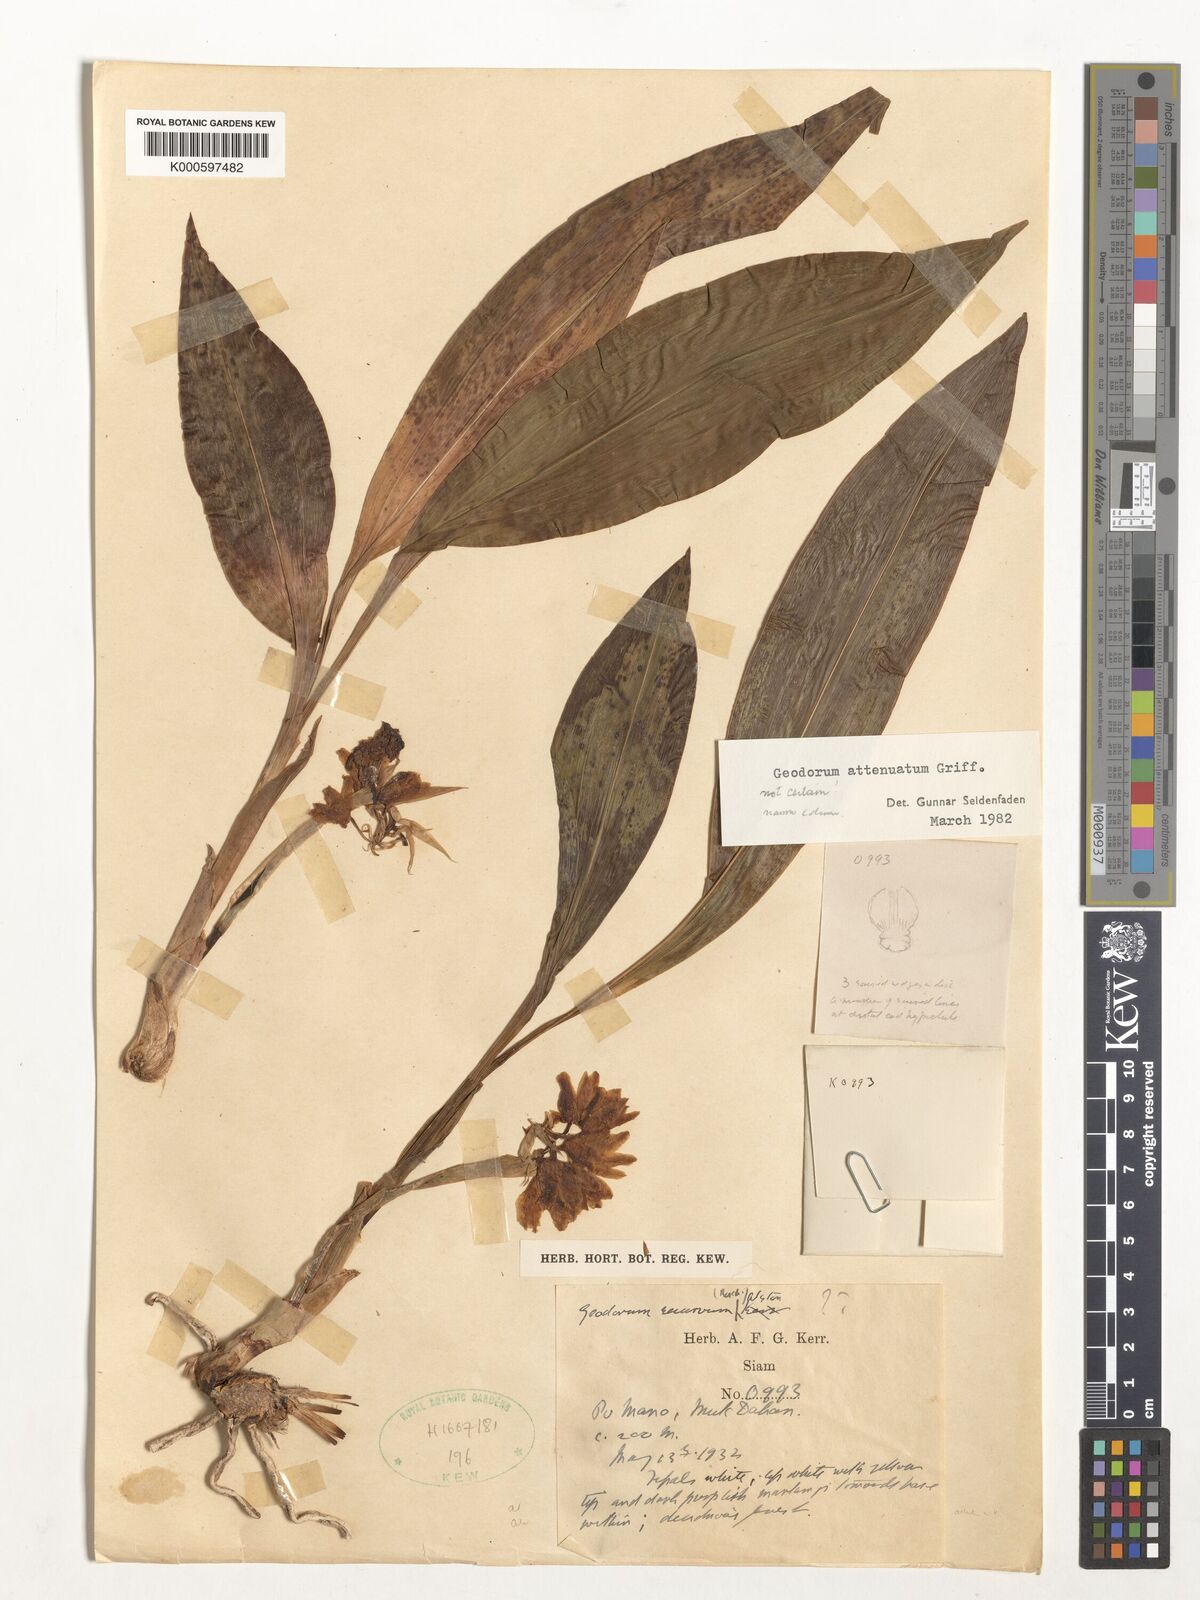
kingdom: Plantae
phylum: Tracheophyta
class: Liliopsida
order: Asparagales
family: Orchidaceae
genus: Eulophia
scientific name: Eulophia attenuata
